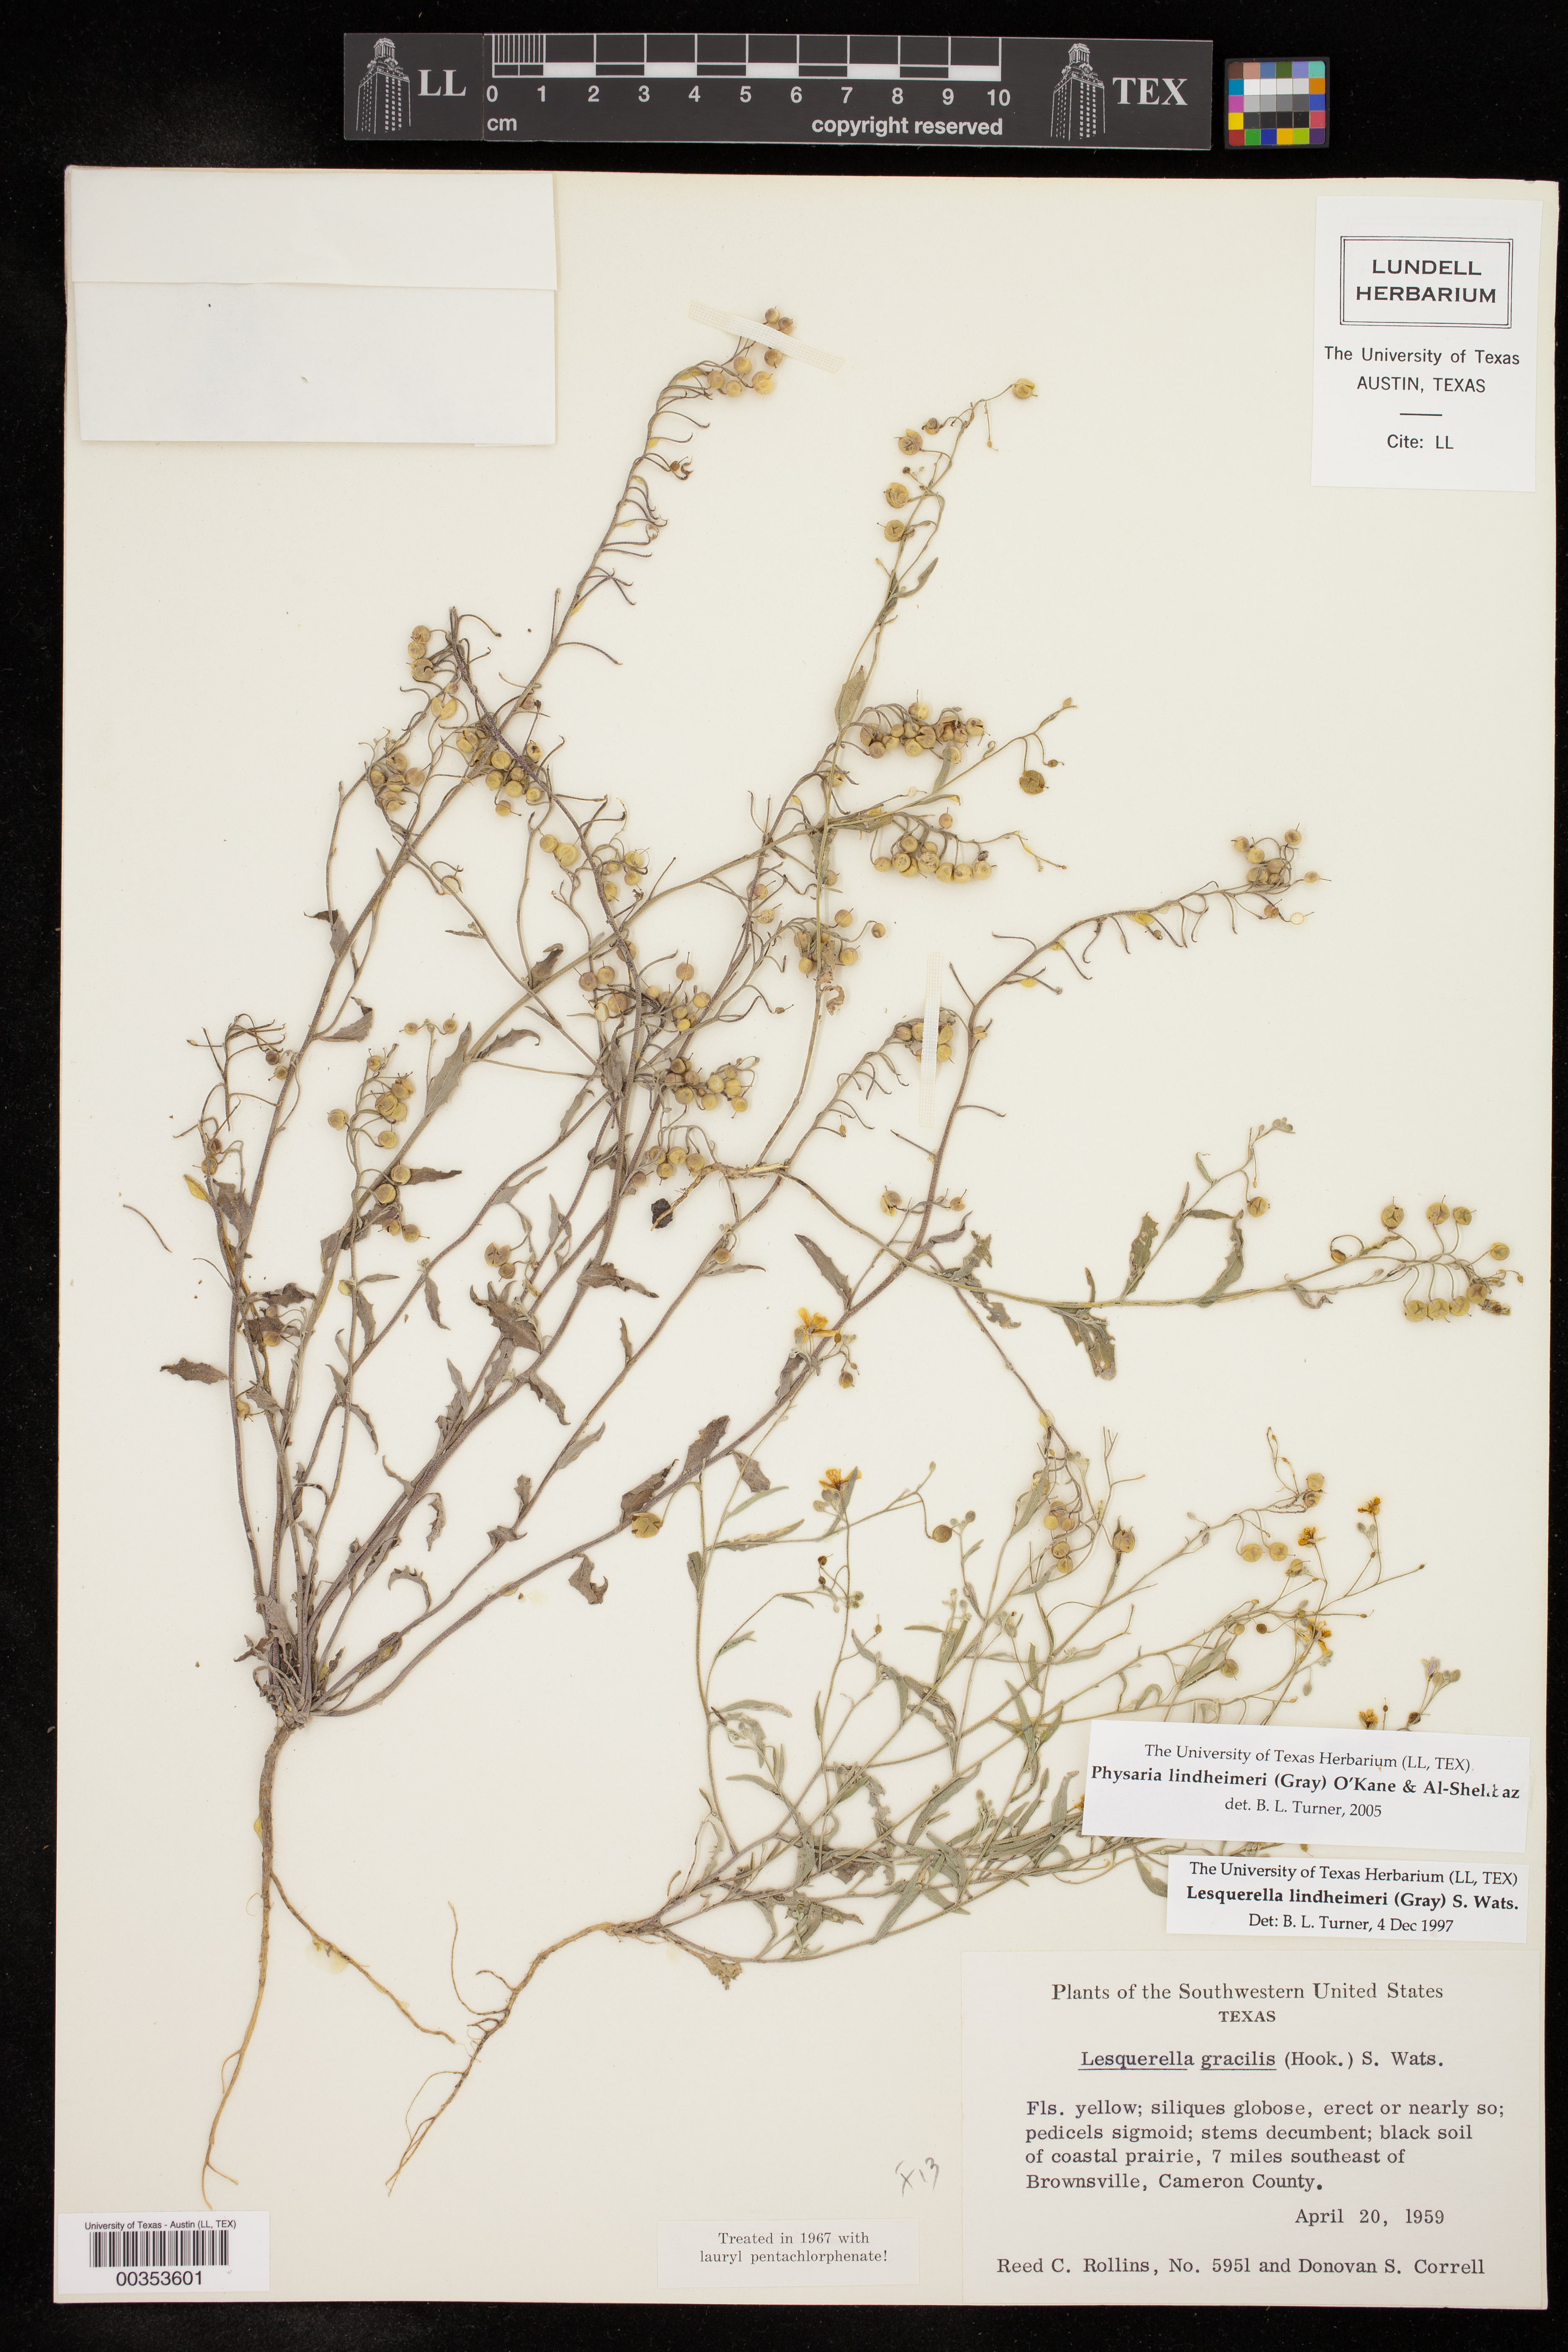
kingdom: Plantae
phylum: Tracheophyta
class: Magnoliopsida
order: Brassicales
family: Brassicaceae
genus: Physaria
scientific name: Physaria lindheimeri
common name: Lindheimer's bladderpod
